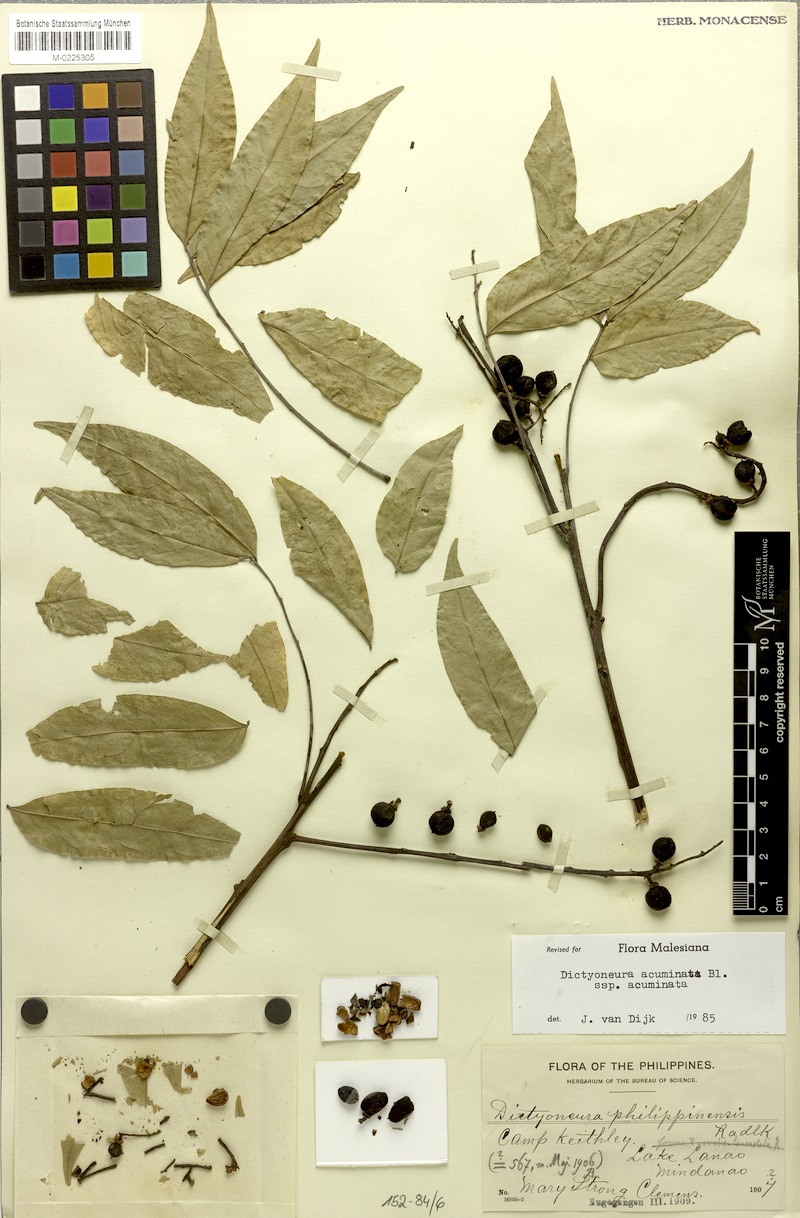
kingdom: Plantae
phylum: Tracheophyta
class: Magnoliopsida
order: Sapindales
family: Sapindaceae
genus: Dictyoneura
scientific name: Dictyoneura acuminata
